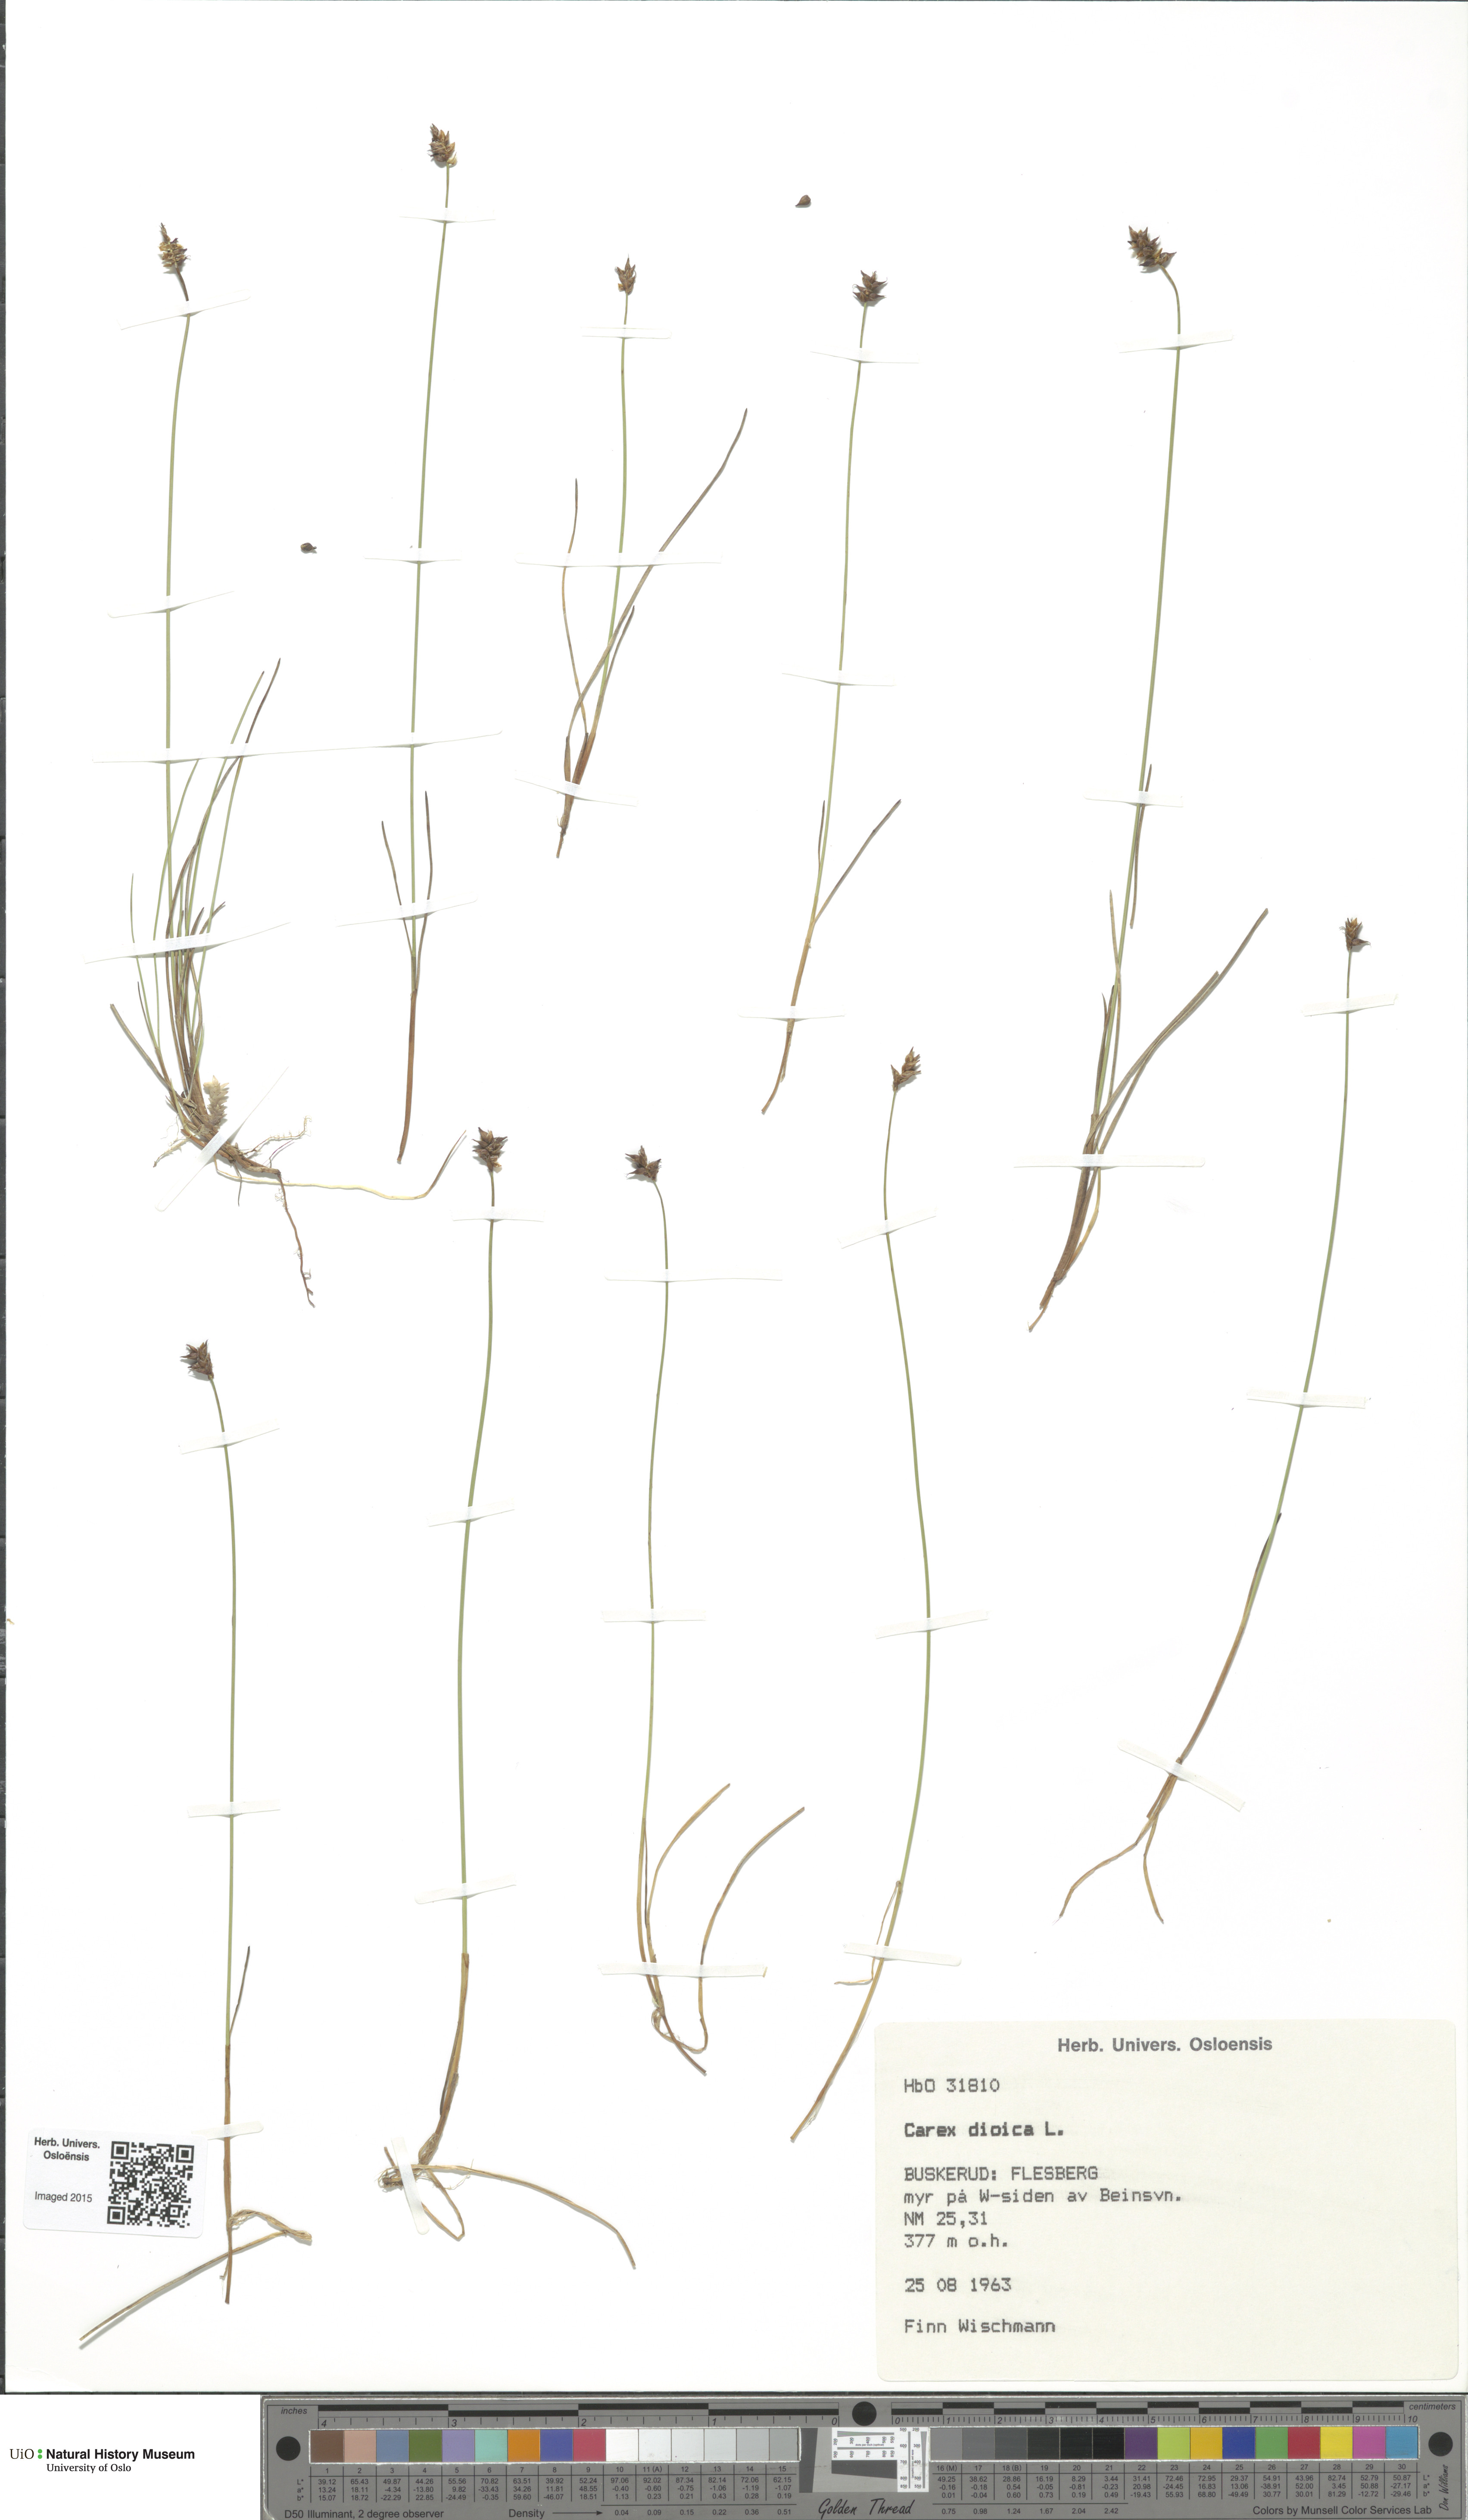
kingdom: Plantae
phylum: Tracheophyta
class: Liliopsida
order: Poales
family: Cyperaceae
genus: Carex
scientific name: Carex dioica
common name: Dioecious sedge
